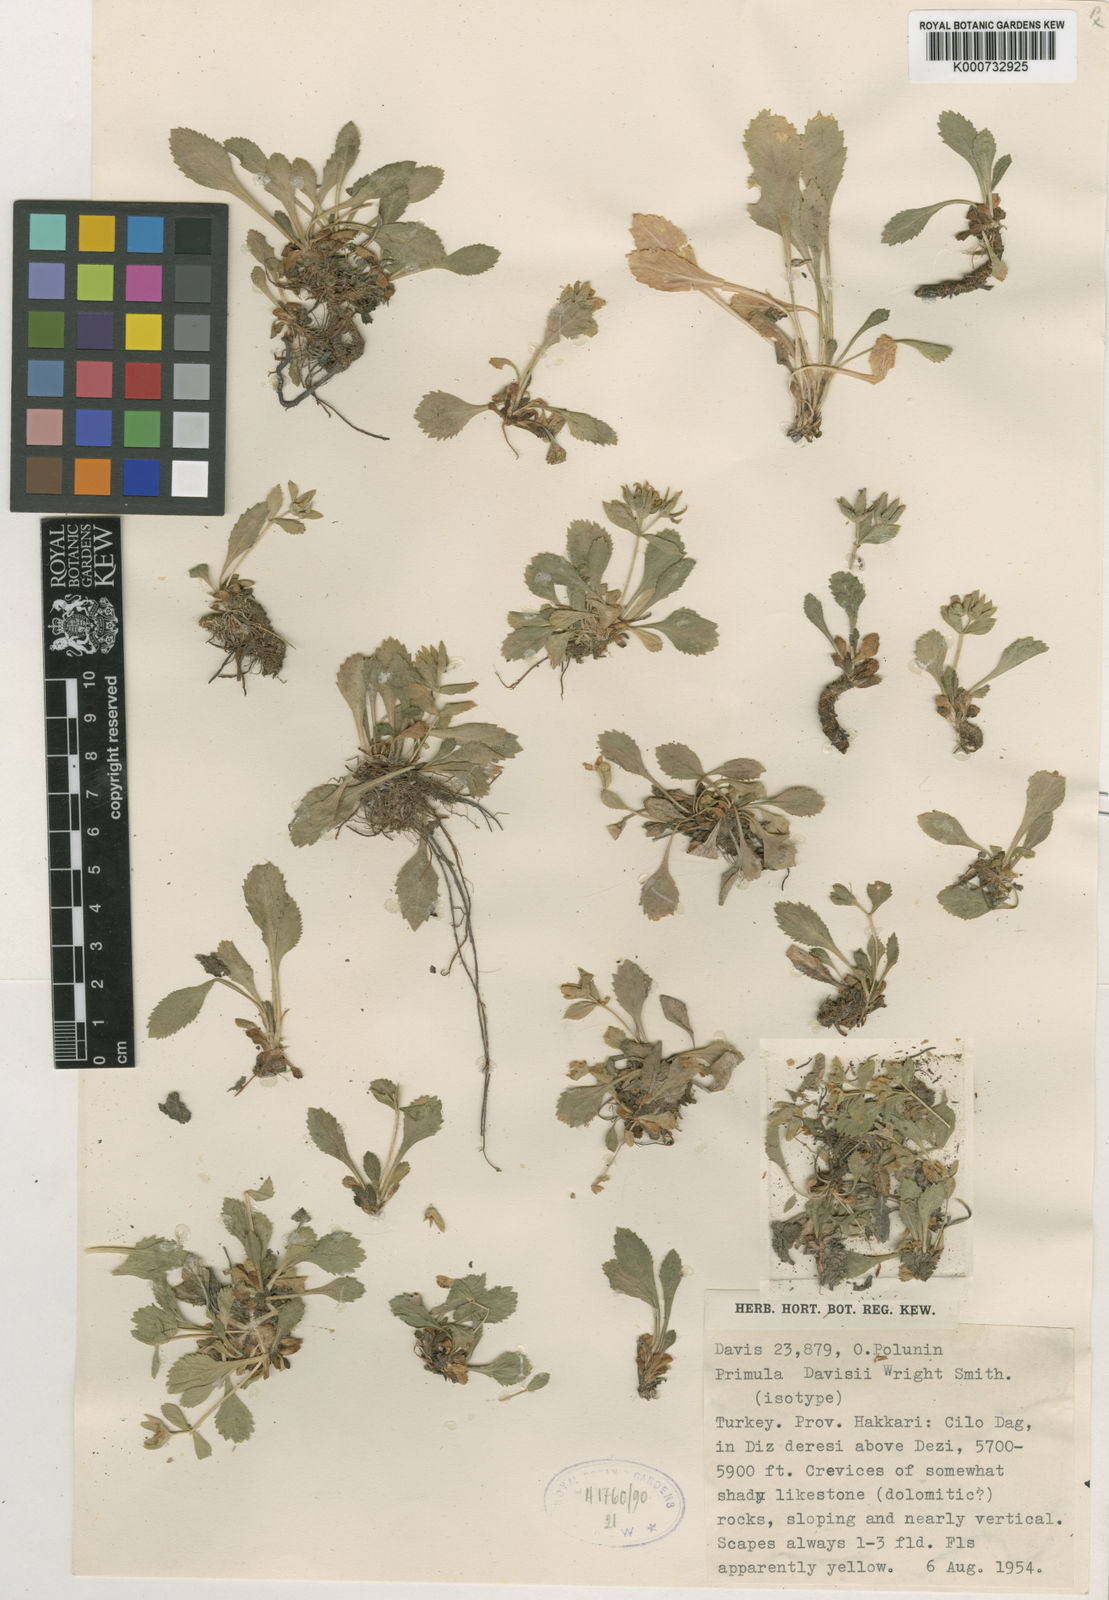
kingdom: Plantae
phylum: Tracheophyta
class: Magnoliopsida
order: Ericales
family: Primulaceae
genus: Evotrochis
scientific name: Evotrochis davisii
